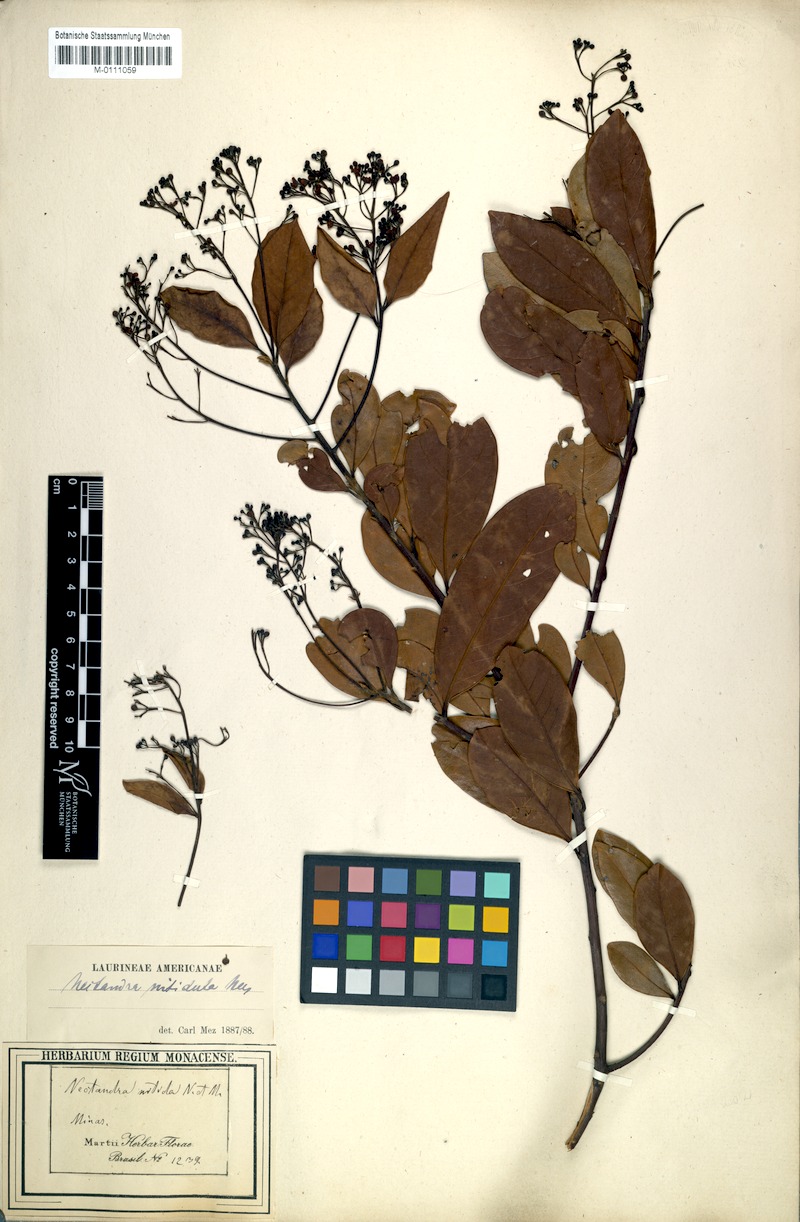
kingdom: Plantae
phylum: Tracheophyta
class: Magnoliopsida
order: Laurales
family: Lauraceae
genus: Nectandra
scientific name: Nectandra nitidula
